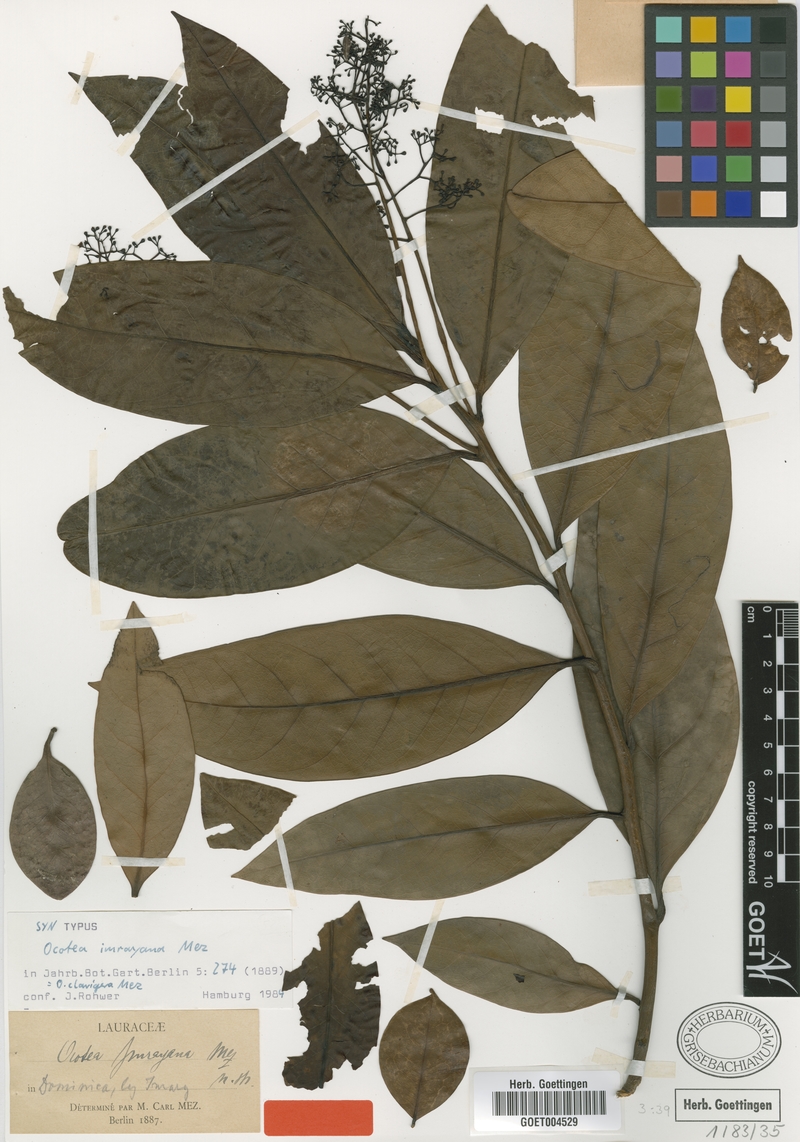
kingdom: Plantae
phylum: Tracheophyta
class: Magnoliopsida
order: Laurales
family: Lauraceae
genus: Ocotea
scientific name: Ocotea clavigera
